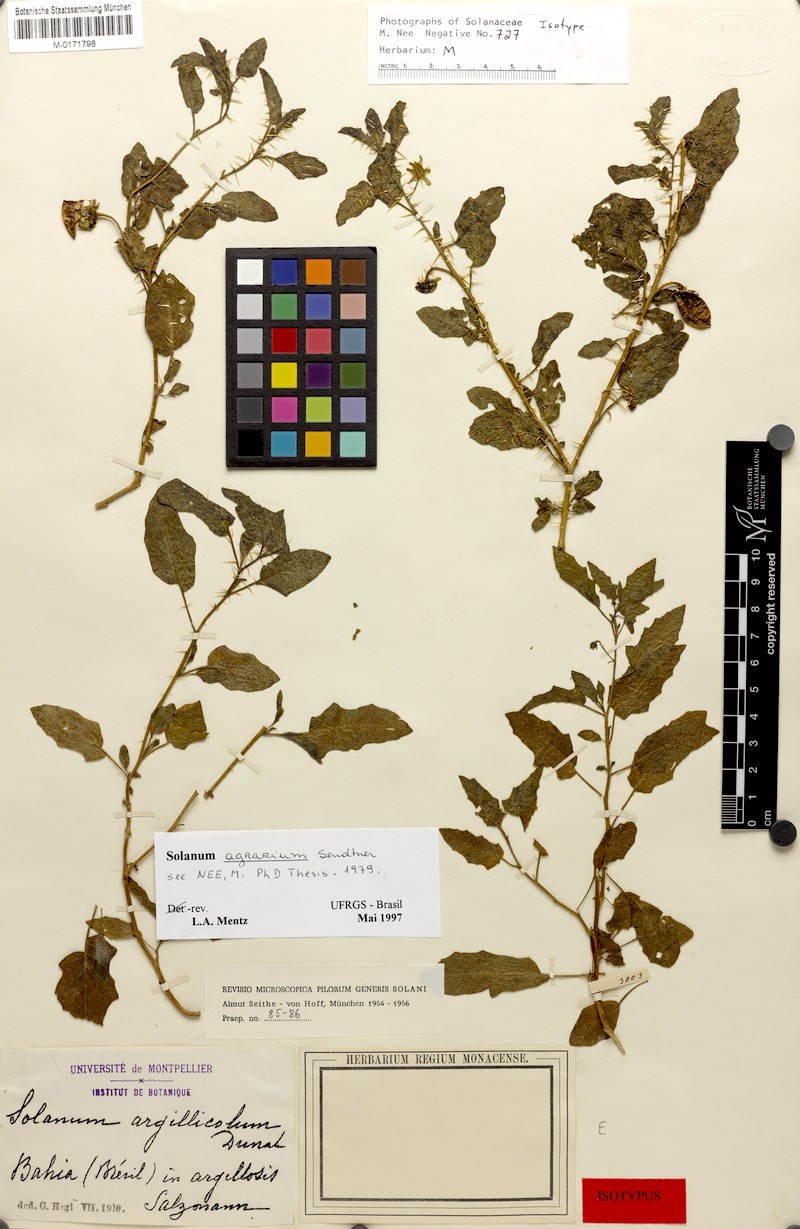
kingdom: Plantae
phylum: Tracheophyta
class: Magnoliopsida
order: Solanales
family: Solanaceae
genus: Solanum
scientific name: Solanum agrarium
